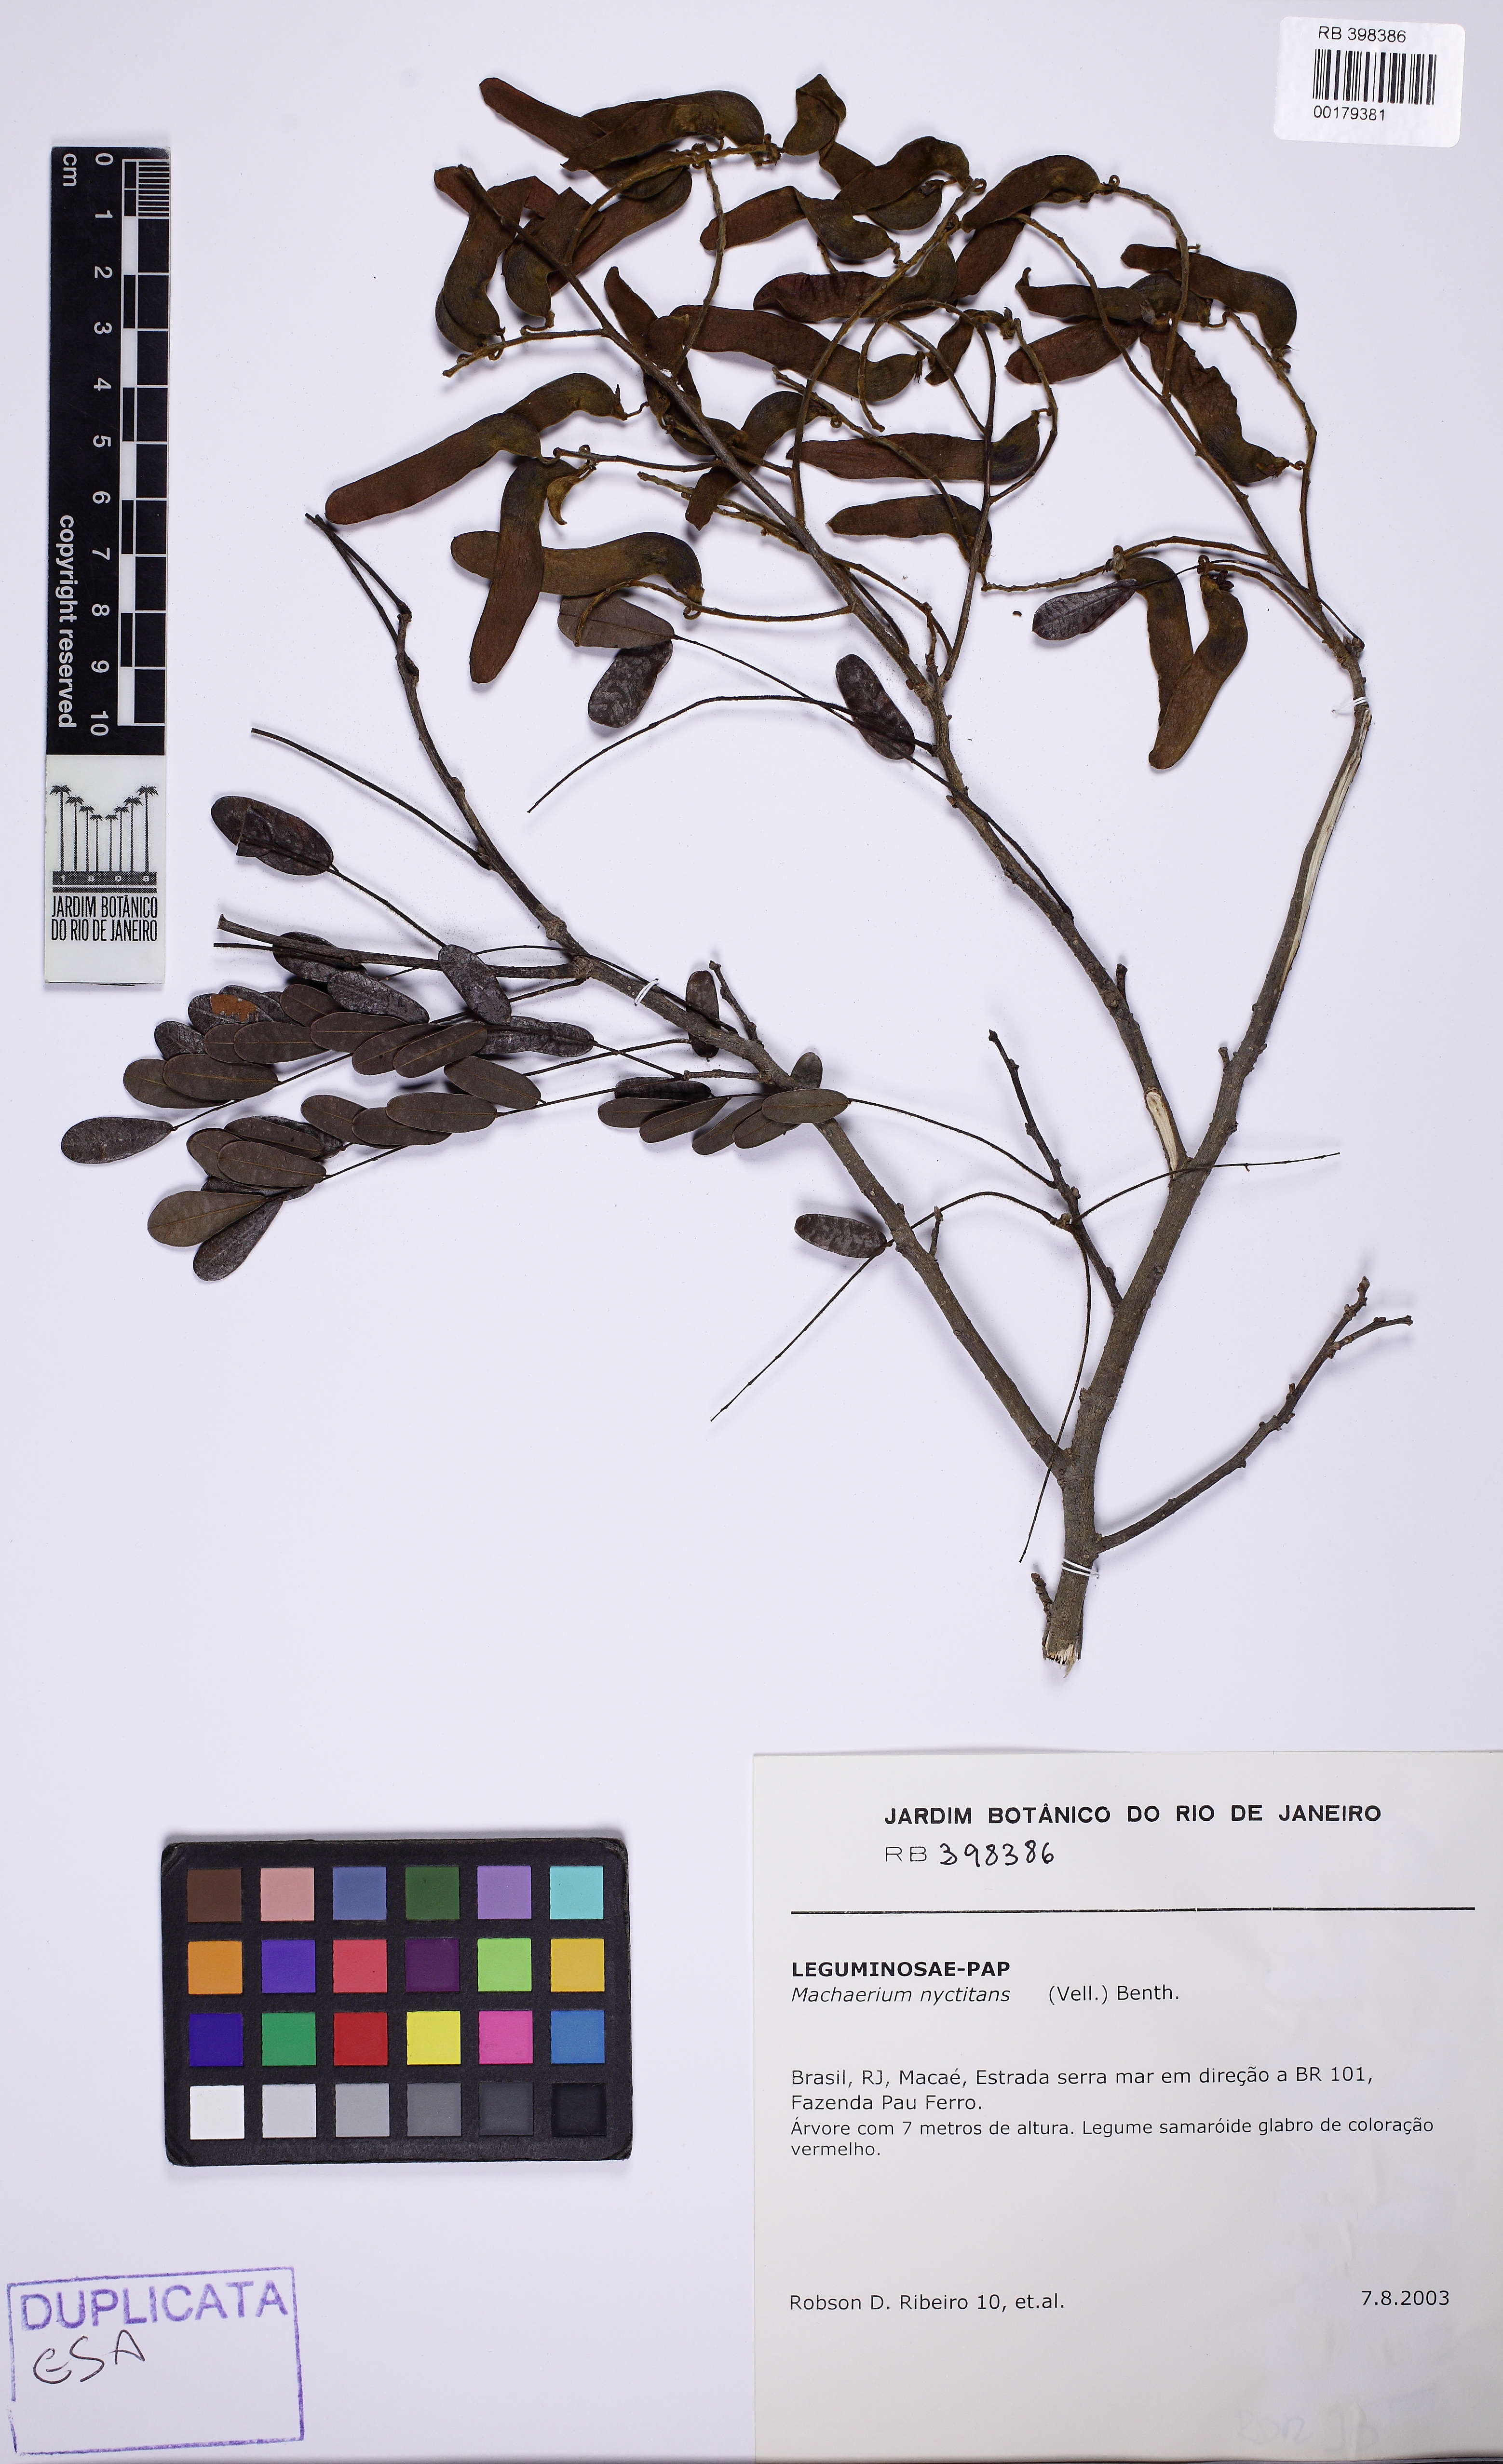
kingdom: Plantae
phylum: Tracheophyta
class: Magnoliopsida
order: Fabales
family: Fabaceae
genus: Machaerium
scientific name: Machaerium nyctitans
